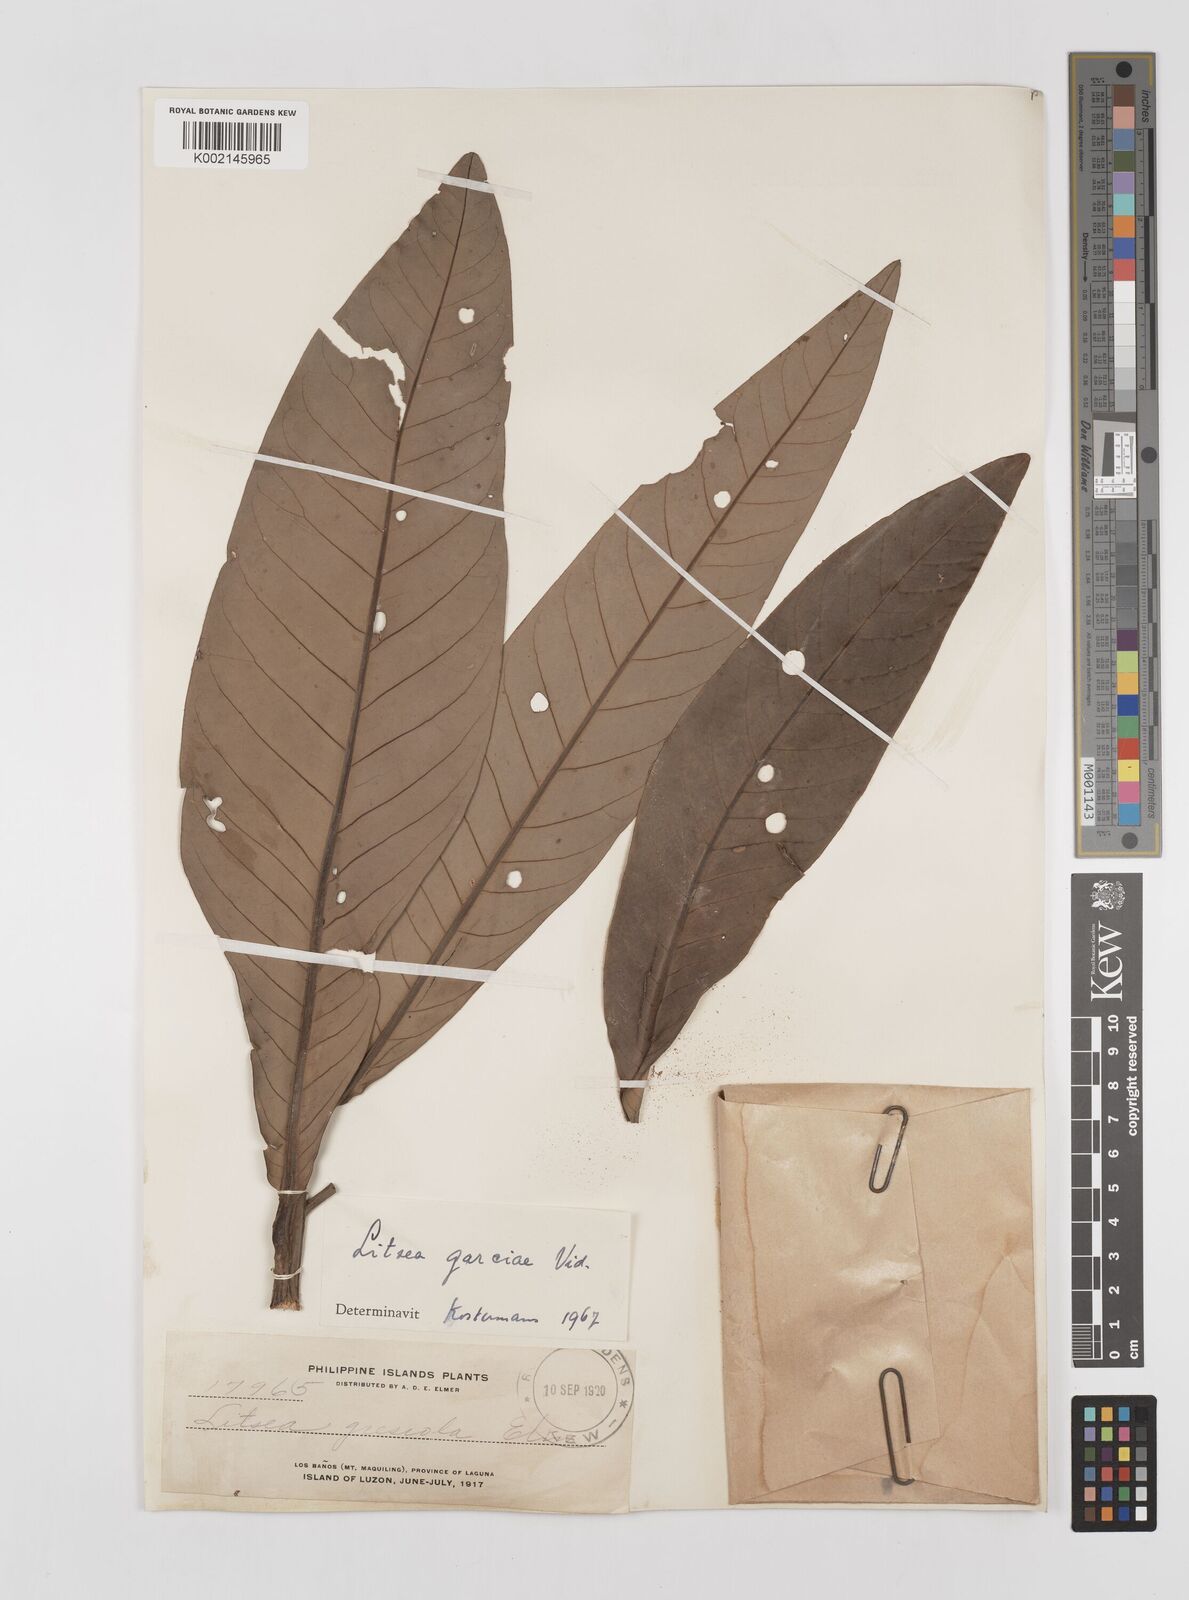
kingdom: Plantae
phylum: Tracheophyta
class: Magnoliopsida
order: Laurales
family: Lauraceae
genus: Litsea
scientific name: Litsea garciae
